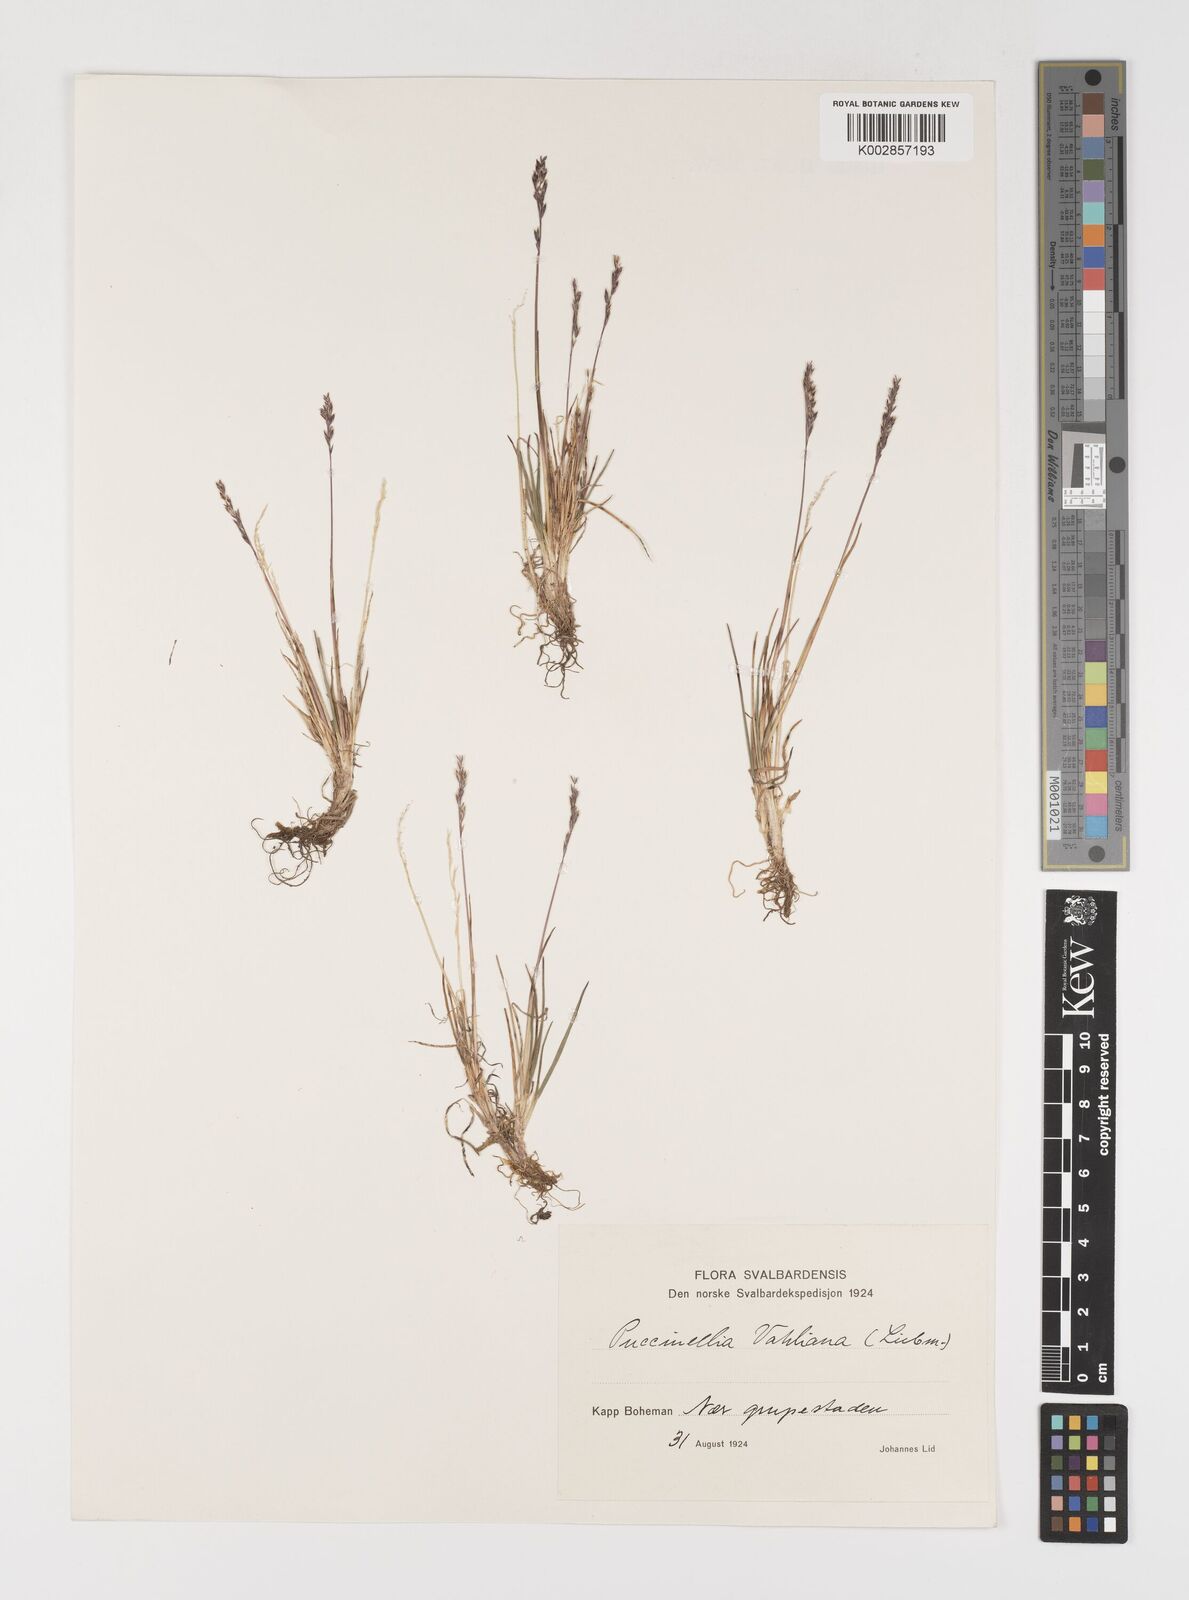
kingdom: Plantae
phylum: Tracheophyta
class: Liliopsida
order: Poales
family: Poaceae
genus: Puccinellia
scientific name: Puccinellia vahliana
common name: Vahl's alkaligrass
